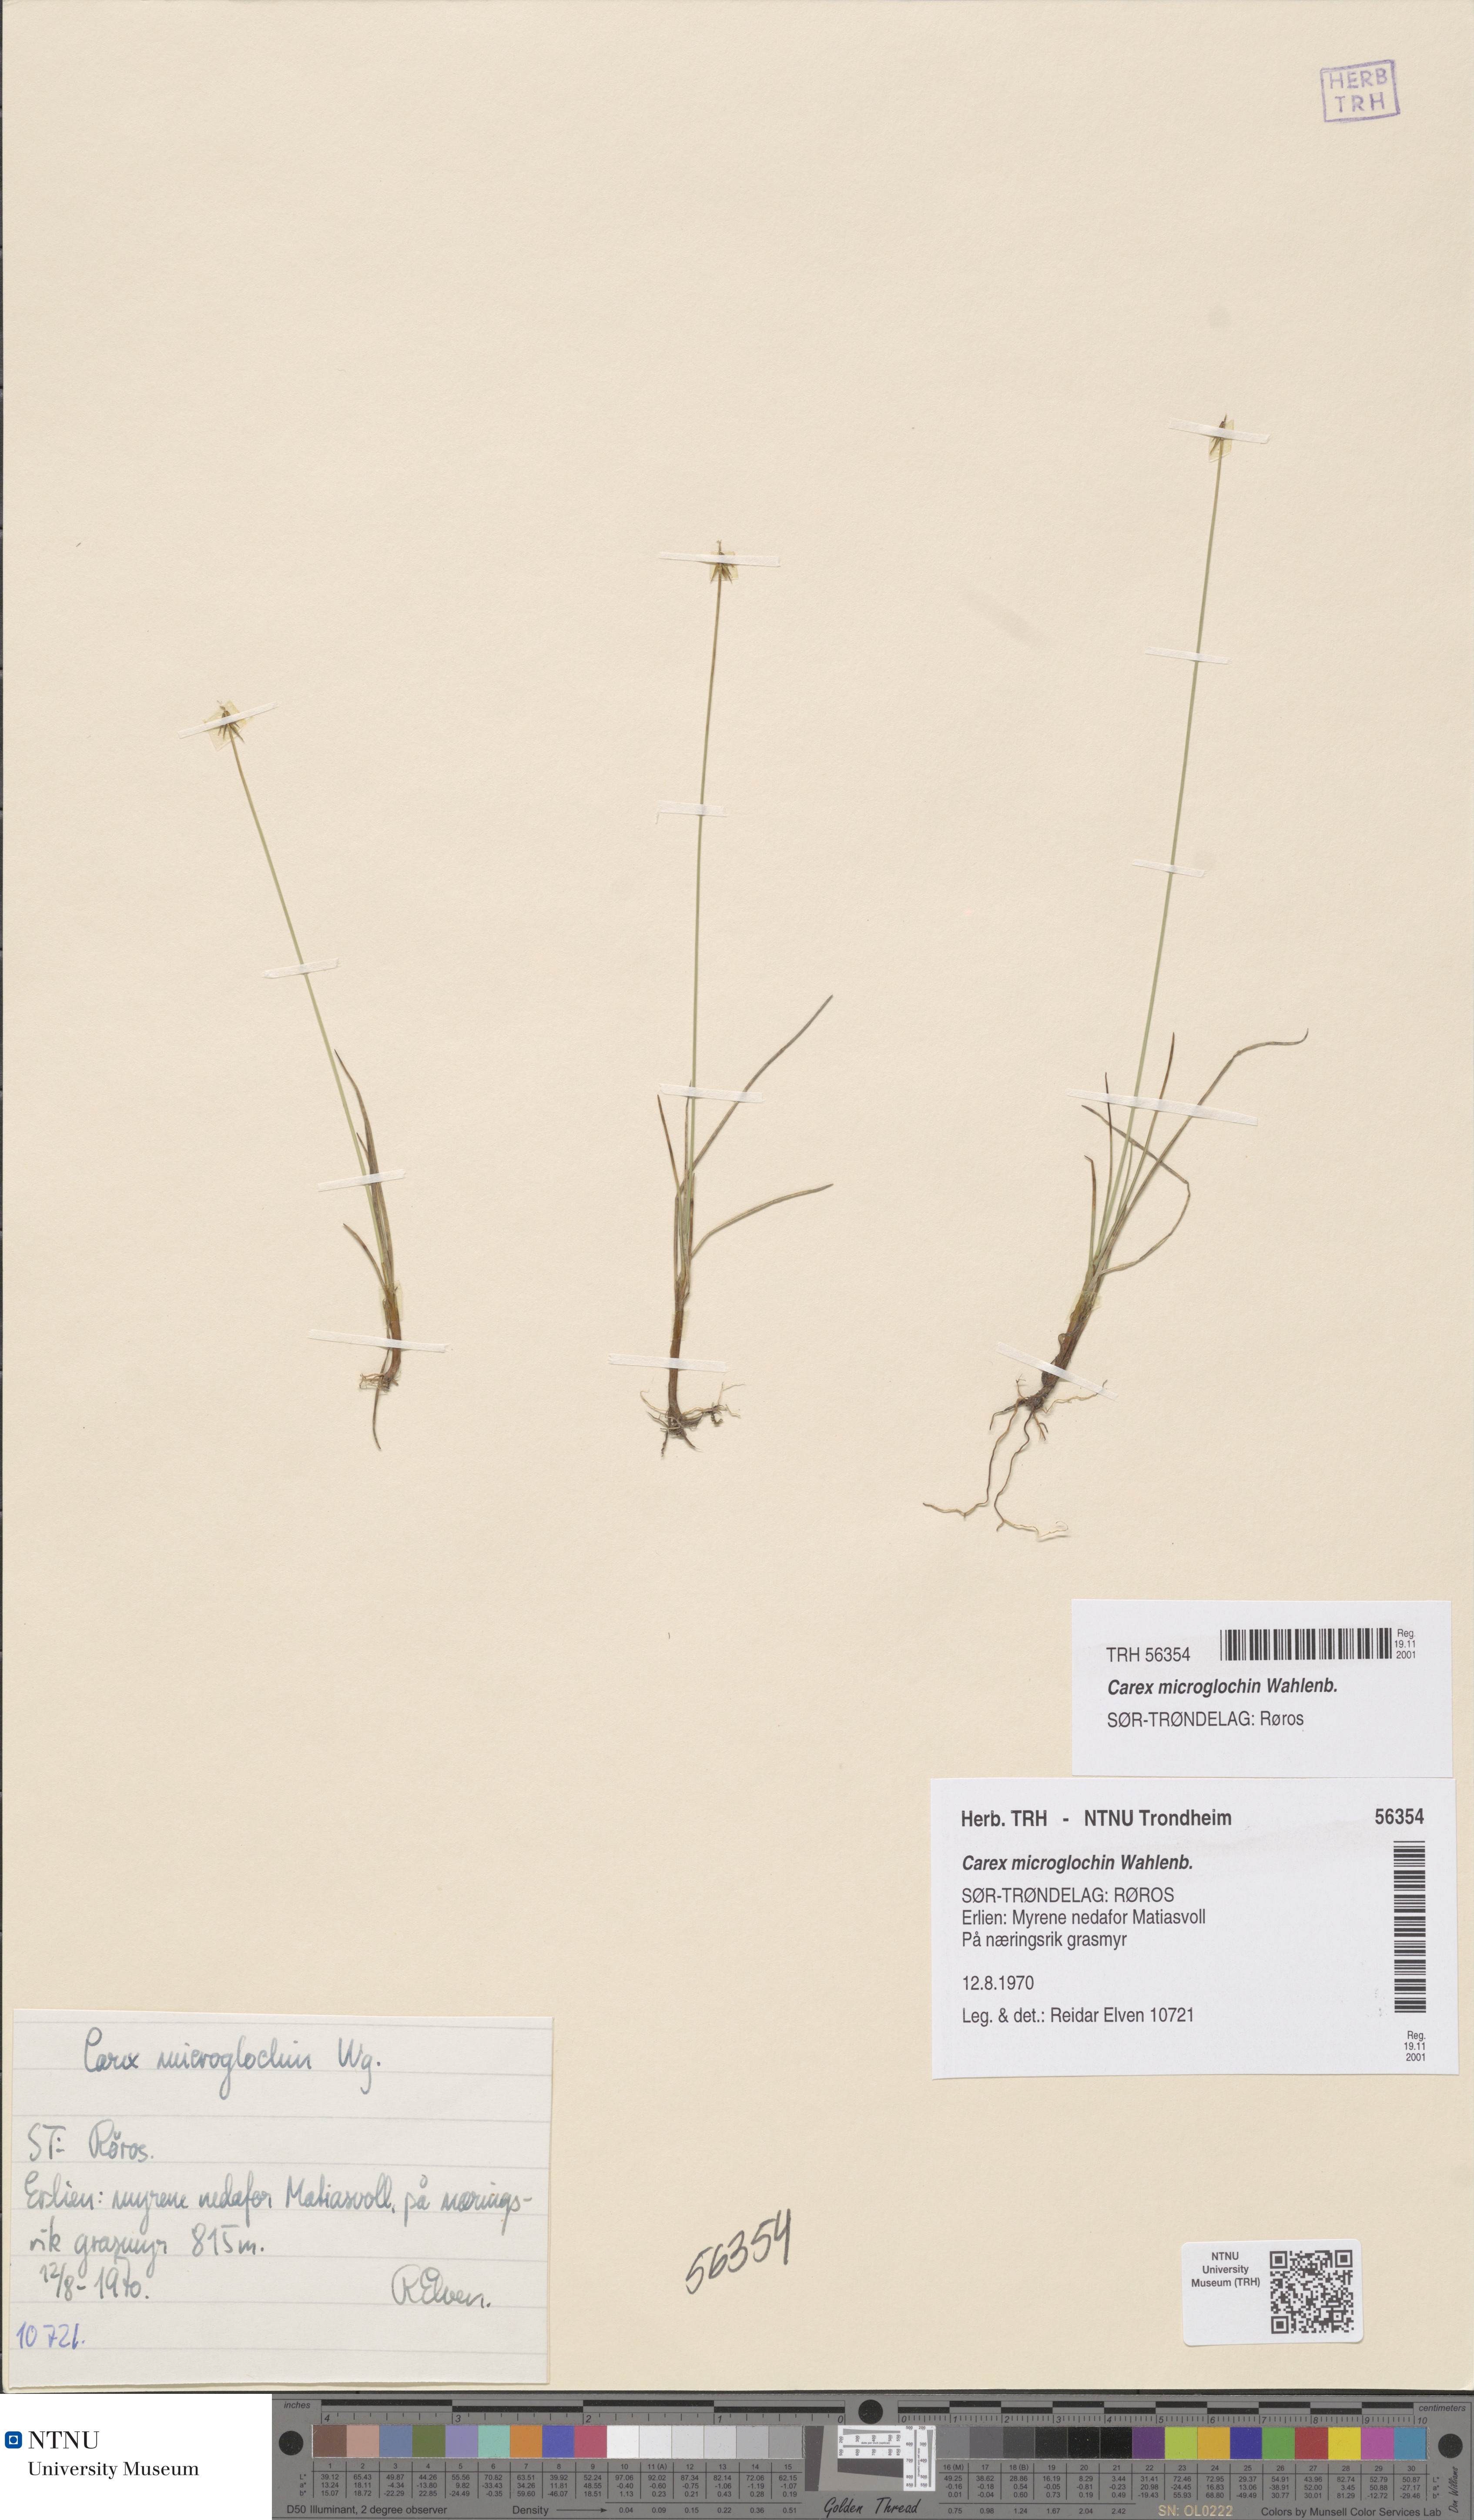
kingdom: Plantae
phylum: Tracheophyta
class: Liliopsida
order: Poales
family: Cyperaceae
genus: Carex
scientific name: Carex microglochin
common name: Bristle sedge
